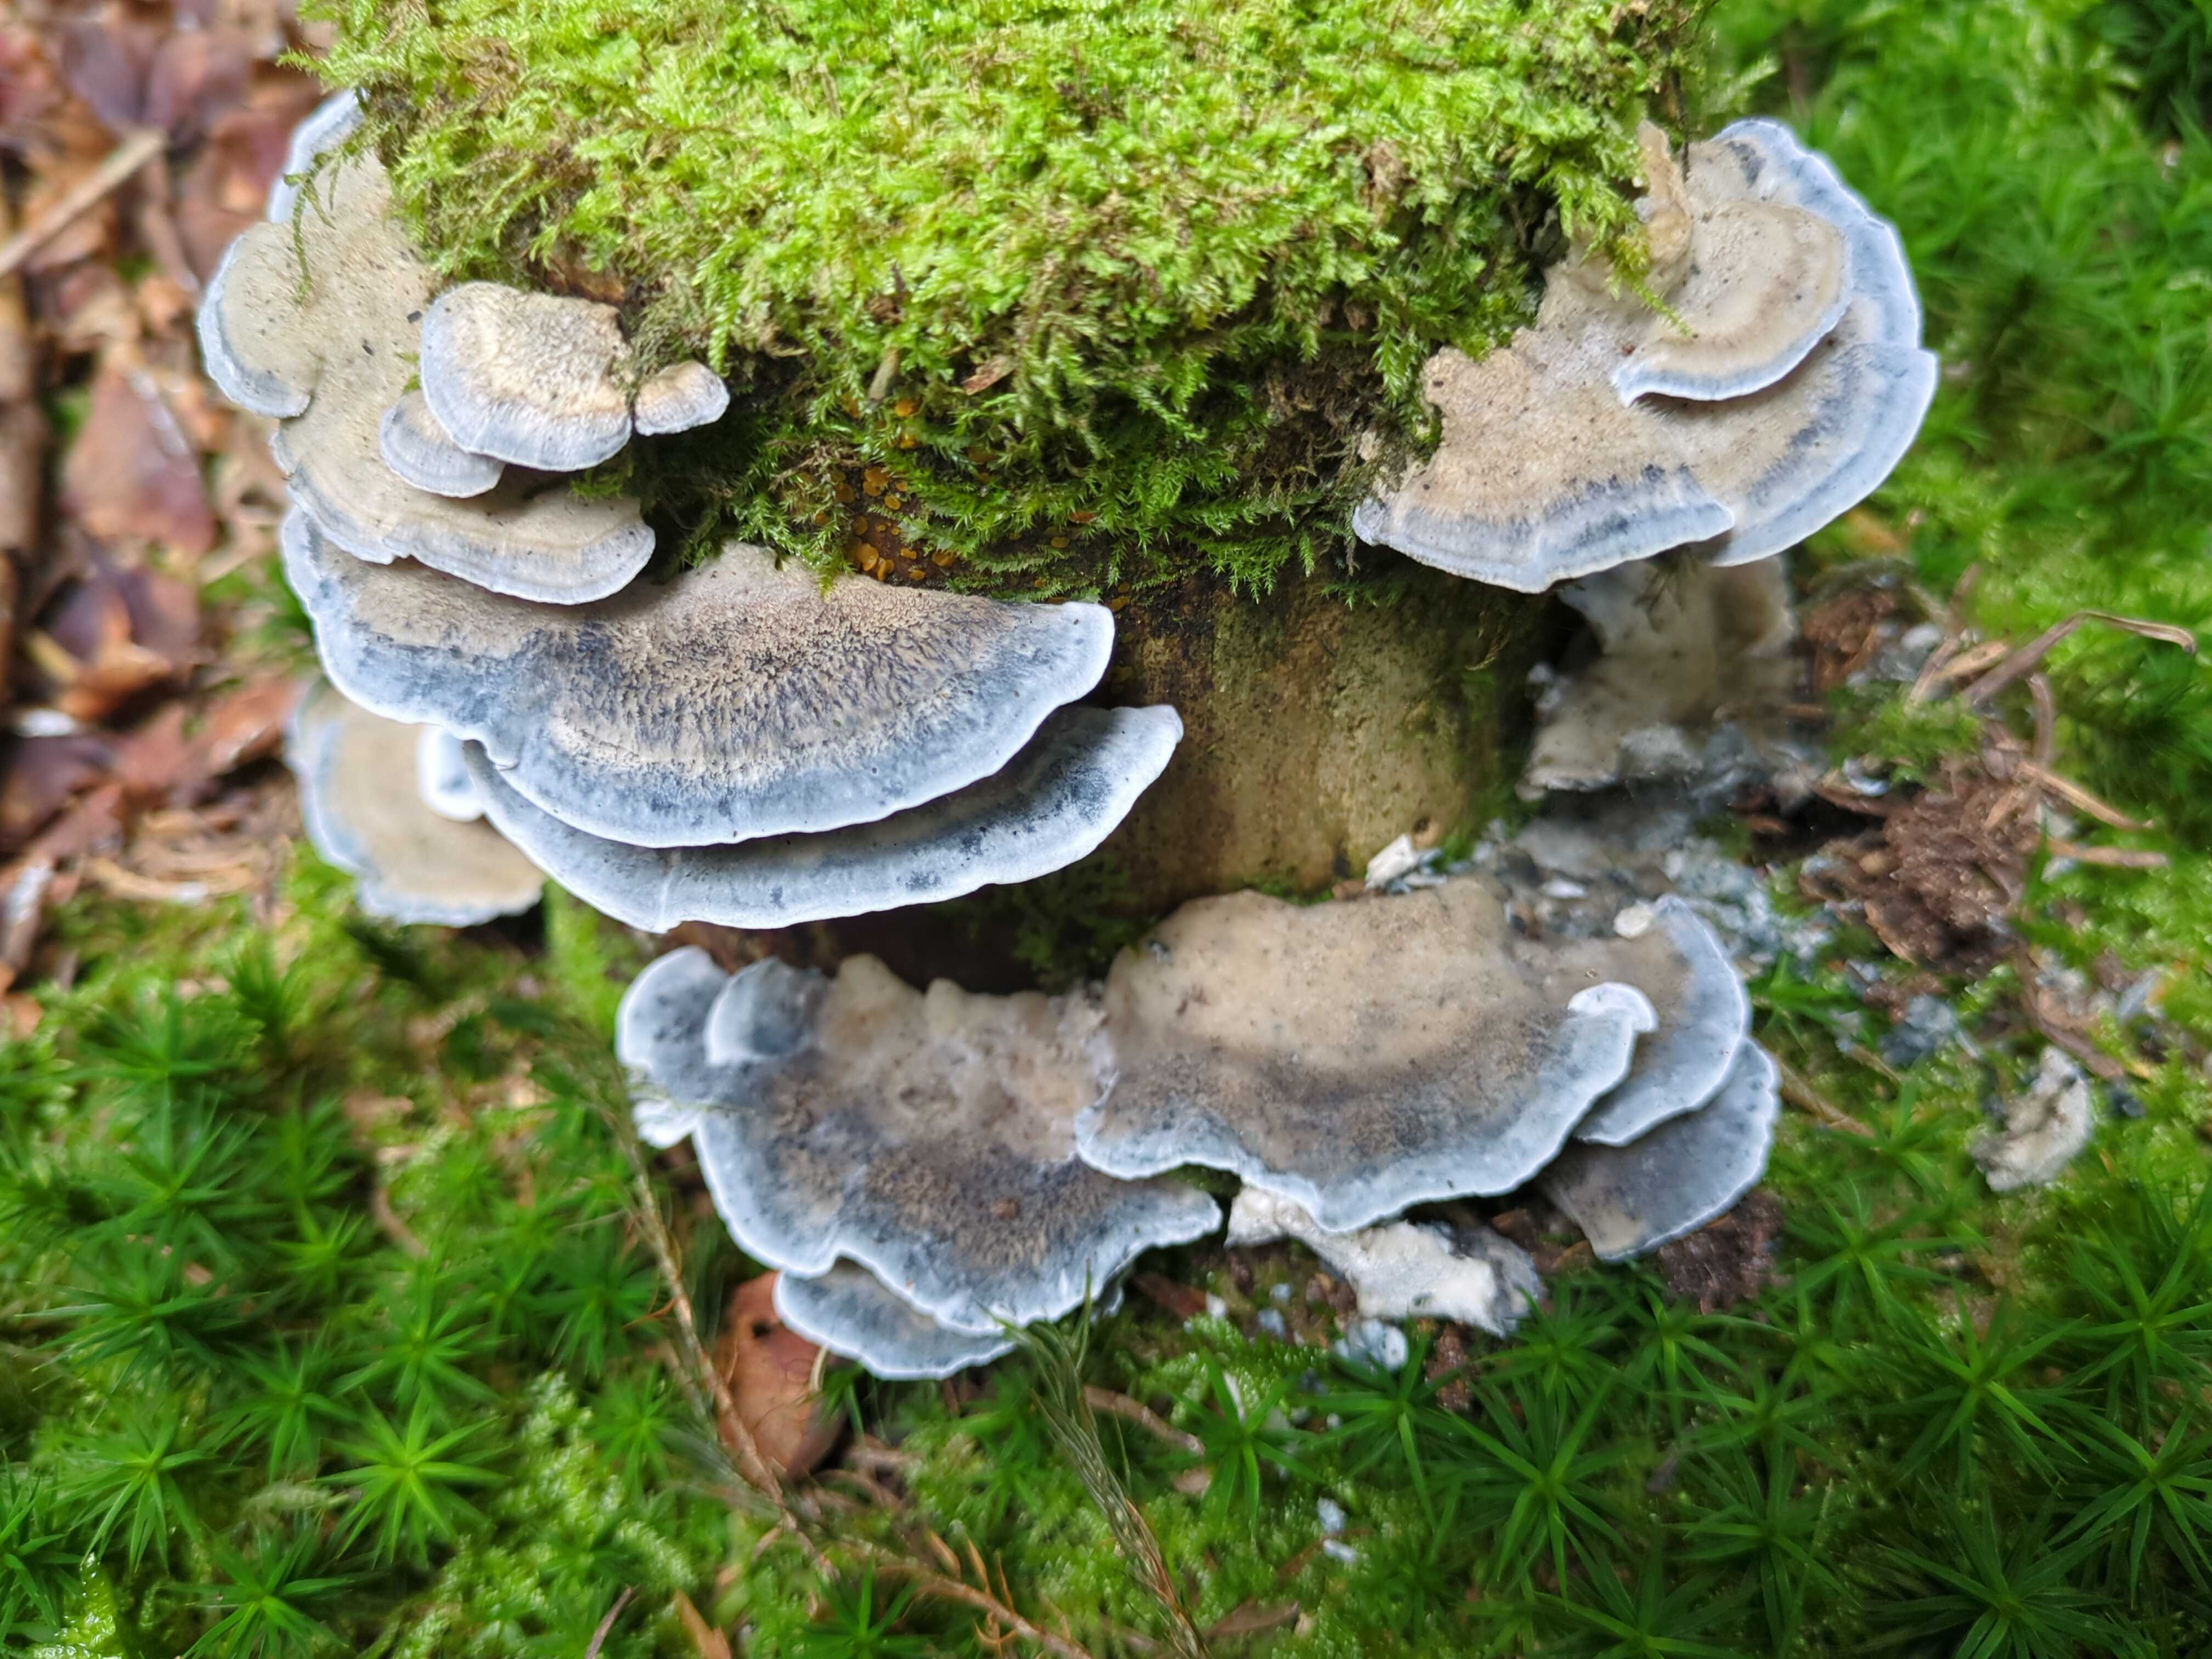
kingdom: Fungi
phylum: Basidiomycota
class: Agaricomycetes
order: Polyporales
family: Polyporaceae
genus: Cyanosporus
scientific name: Cyanosporus caesius
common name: blålig kødporesvamp
